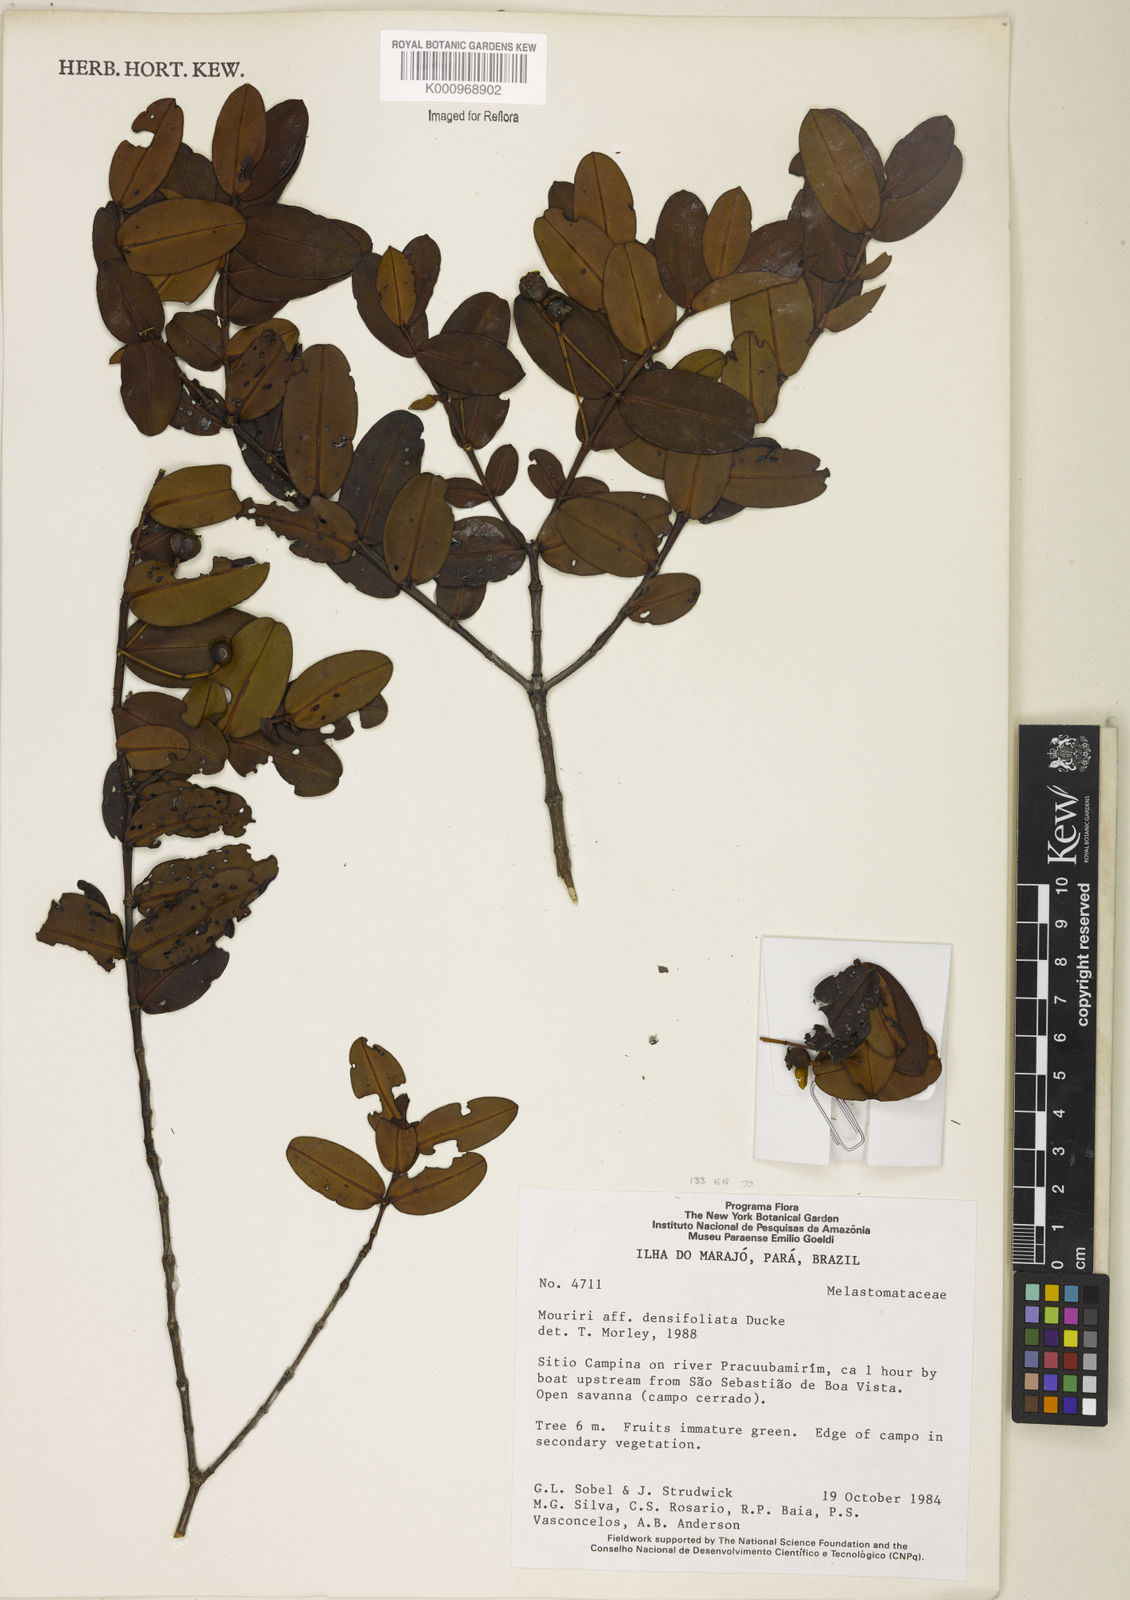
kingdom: Plantae
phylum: Tracheophyta
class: Magnoliopsida
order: Myrtales
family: Melastomataceae
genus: Mouriri
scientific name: Mouriri densifoliata
